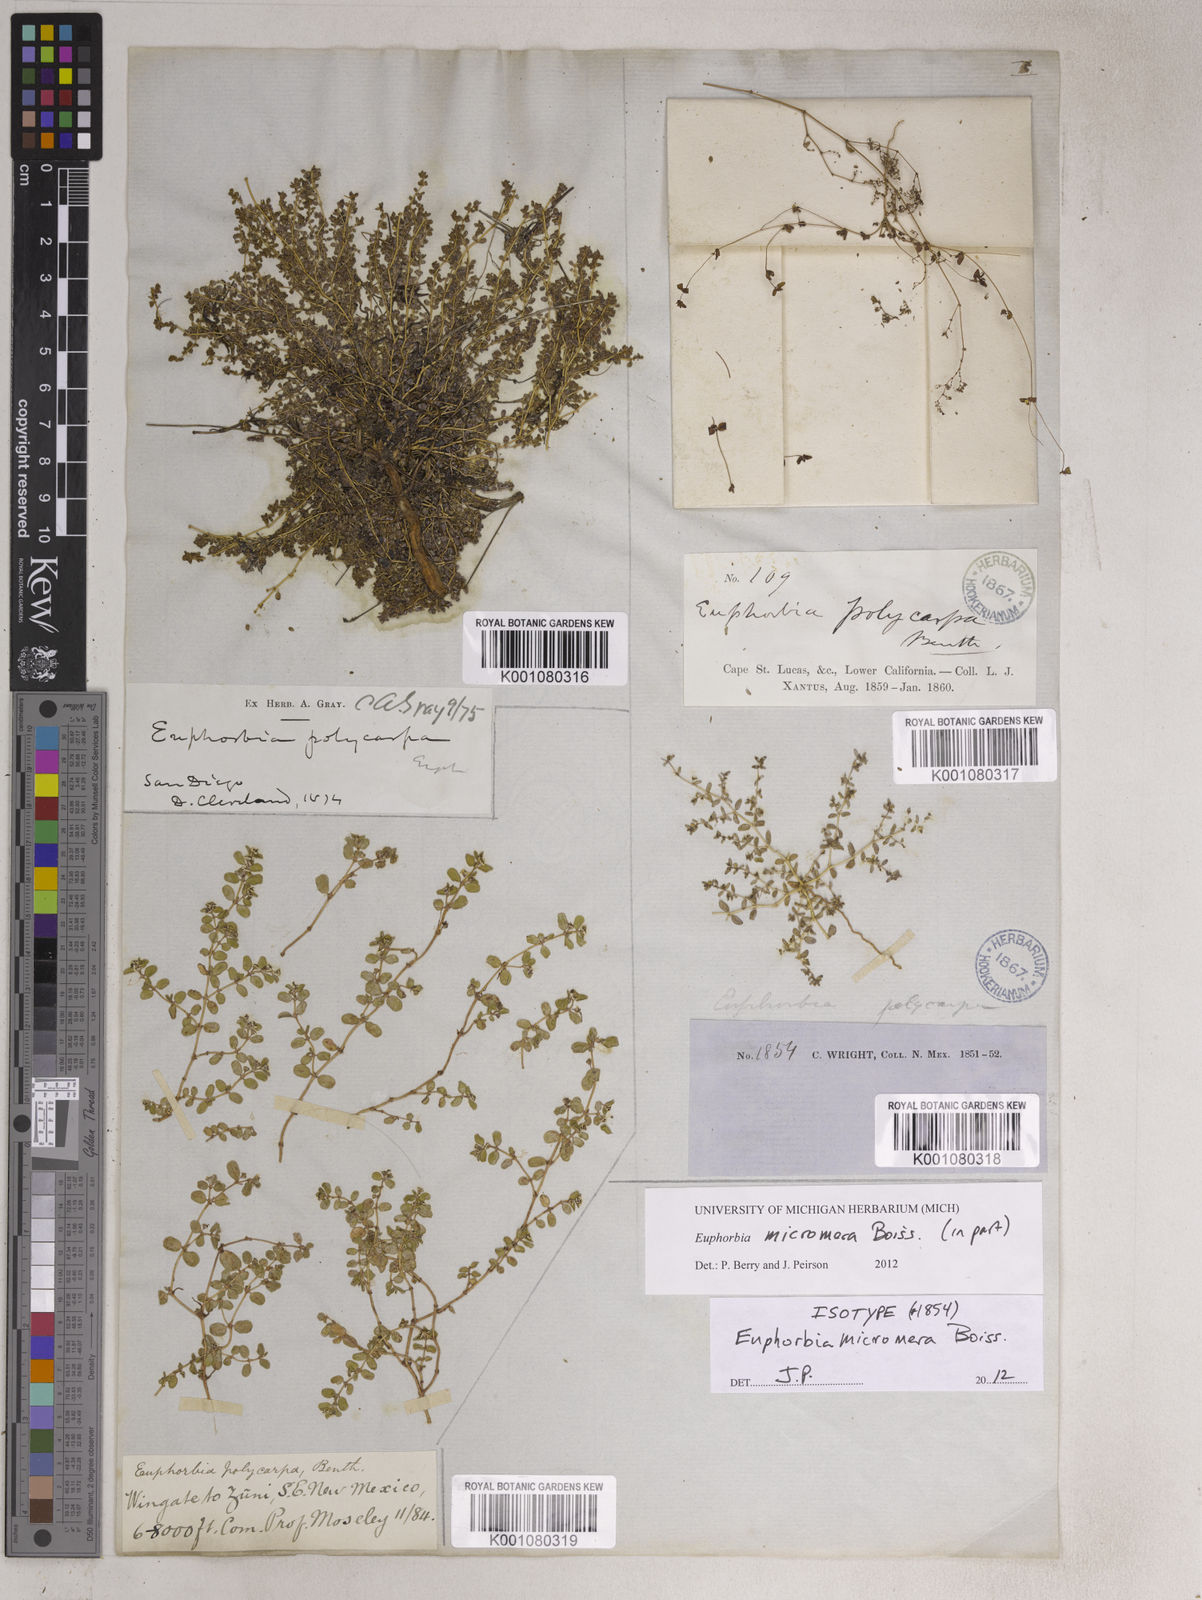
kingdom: Plantae
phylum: Tracheophyta
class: Magnoliopsida
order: Malpighiales
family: Euphorbiaceae
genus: Euphorbia
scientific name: Euphorbia micromera
